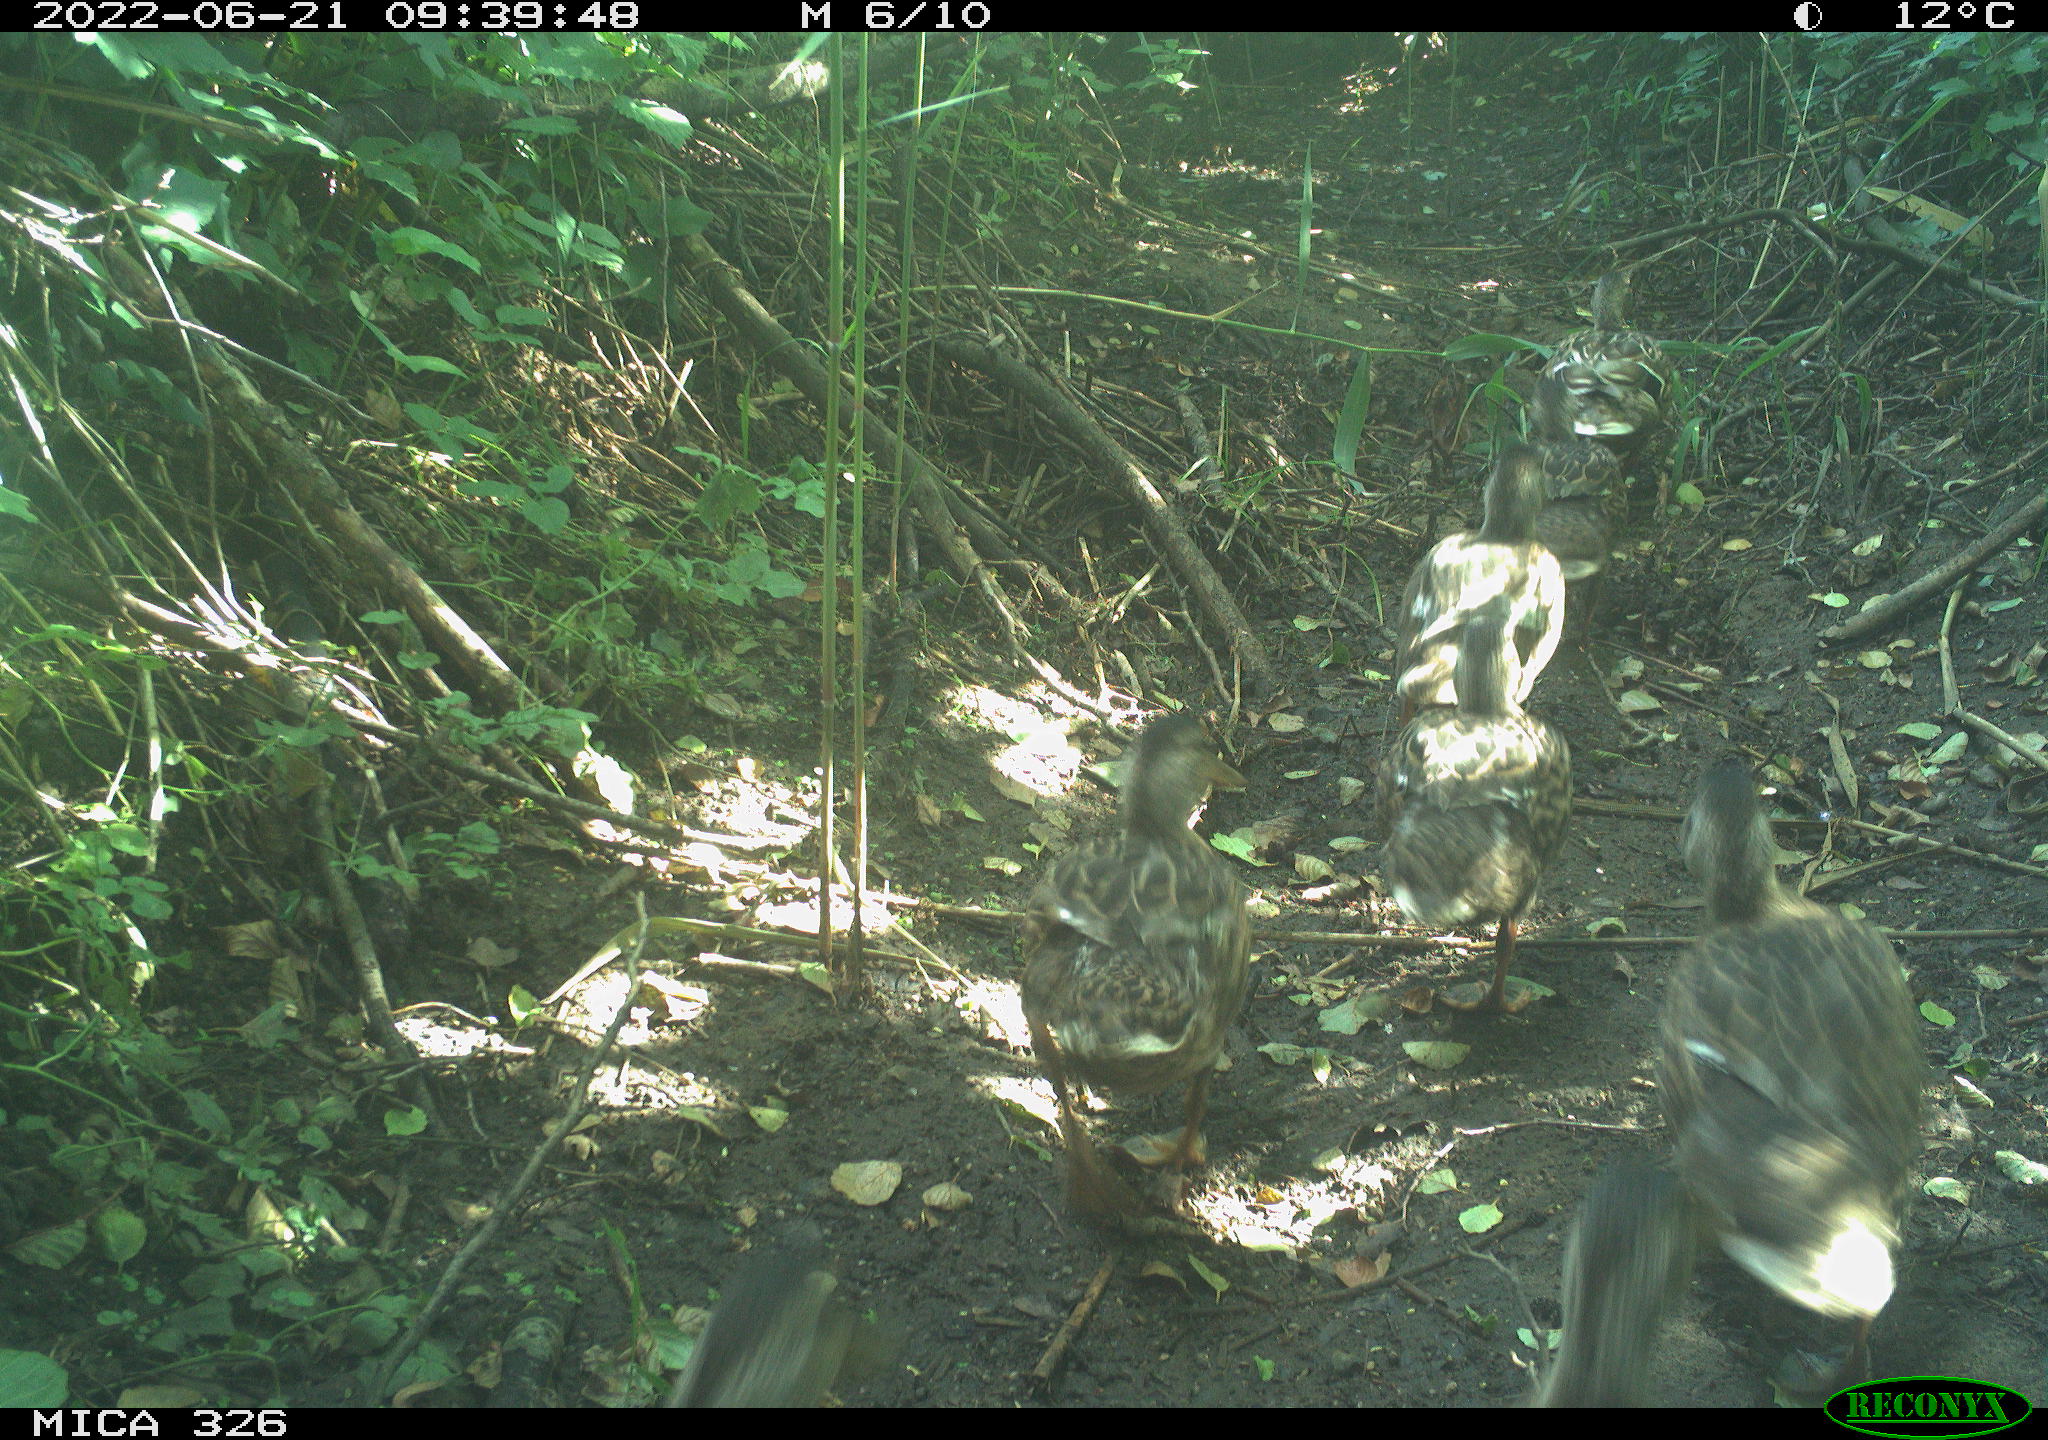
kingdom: Animalia
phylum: Chordata
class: Aves
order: Anseriformes
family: Anatidae
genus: Anas
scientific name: Anas
